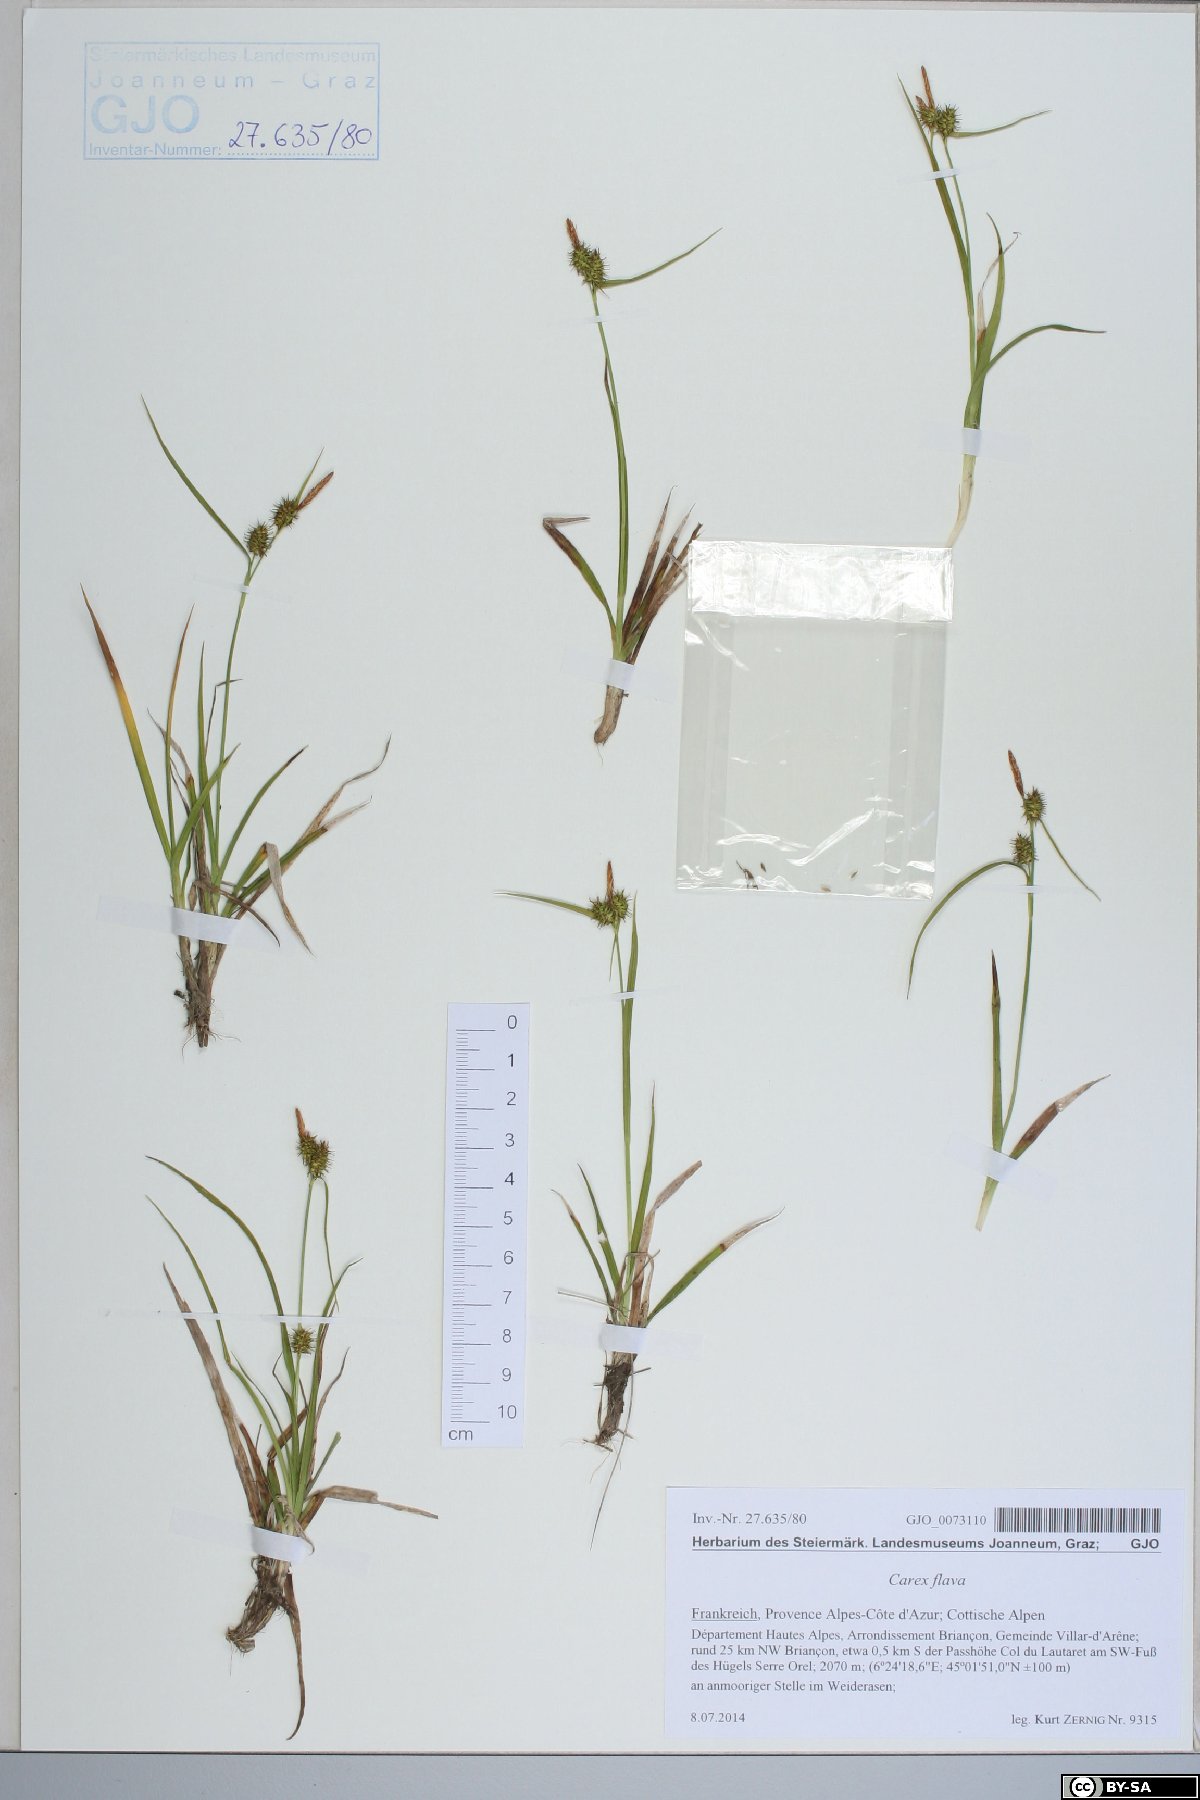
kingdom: Plantae
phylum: Tracheophyta
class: Liliopsida
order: Poales
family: Cyperaceae
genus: Carex
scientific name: Carex flava
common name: Large yellow-sedge
